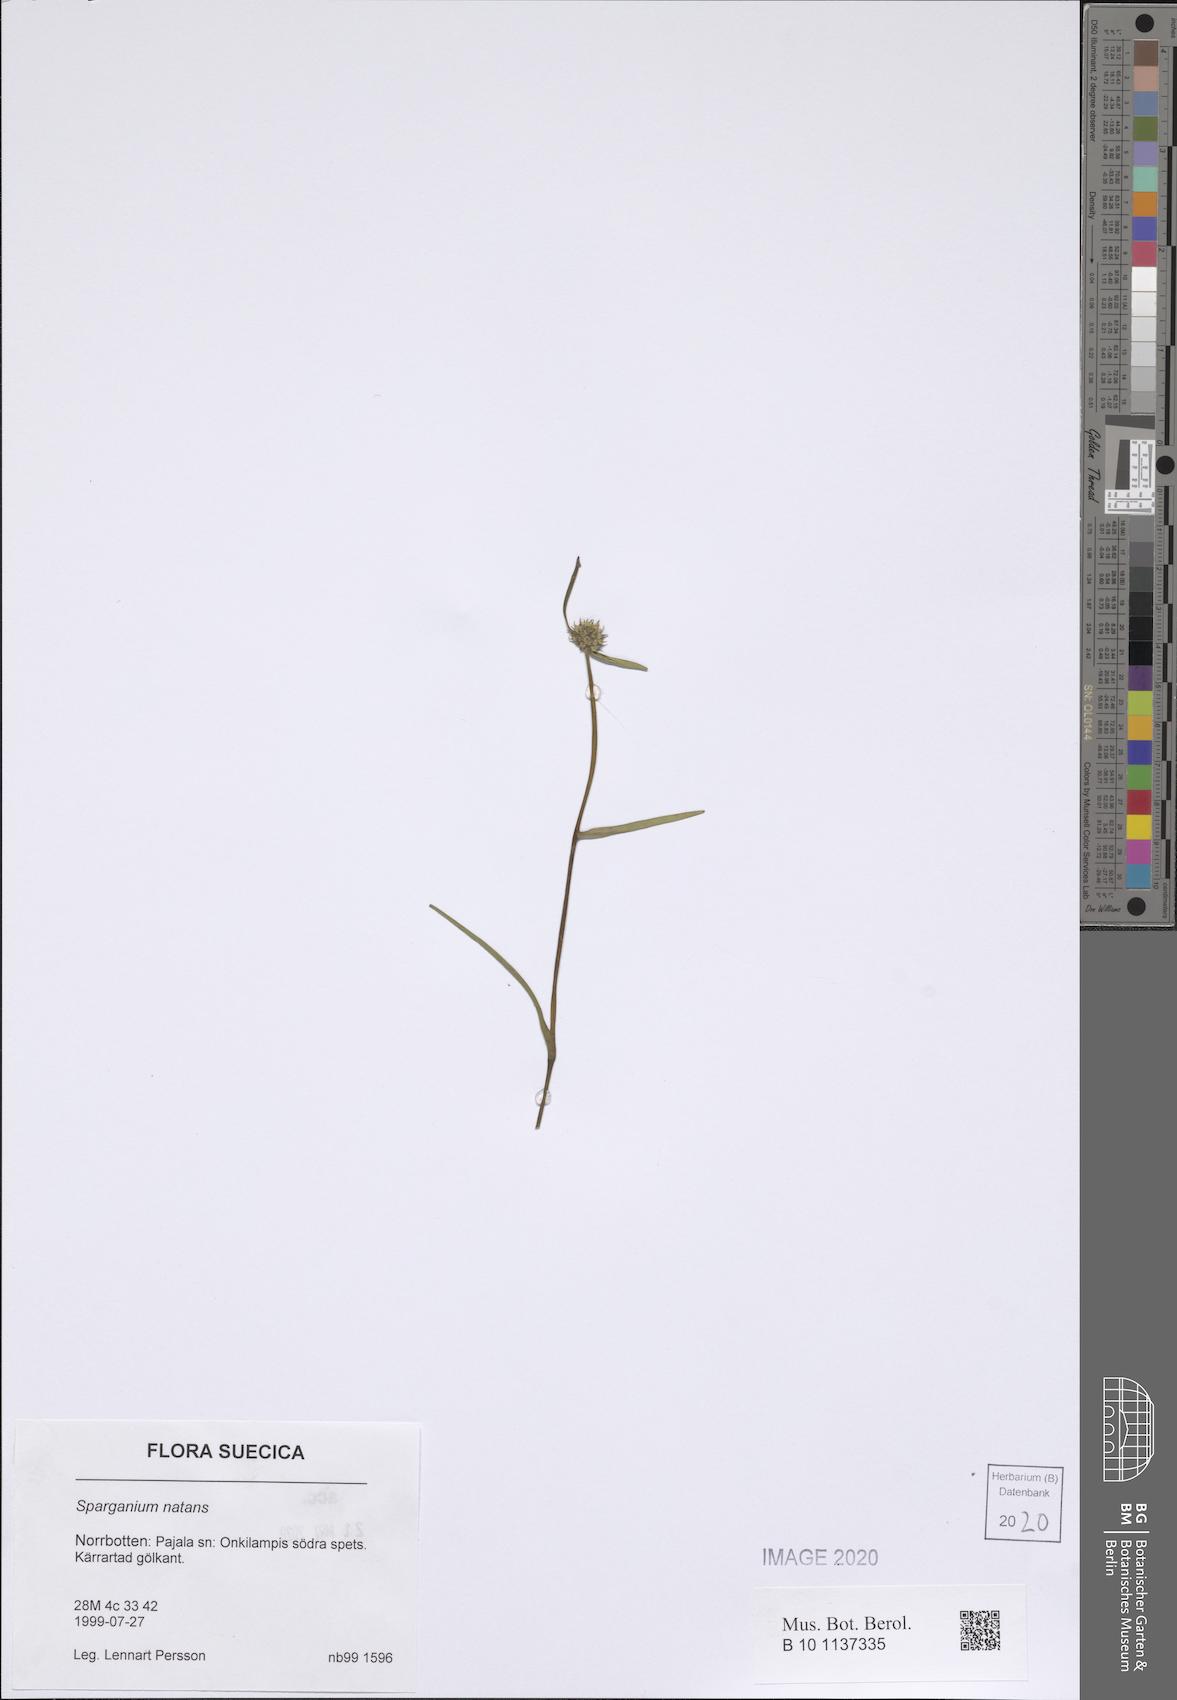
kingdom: Plantae
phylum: Tracheophyta
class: Liliopsida
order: Poales
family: Typhaceae
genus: Sparganium
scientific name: Sparganium natans
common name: Least bur-reed
